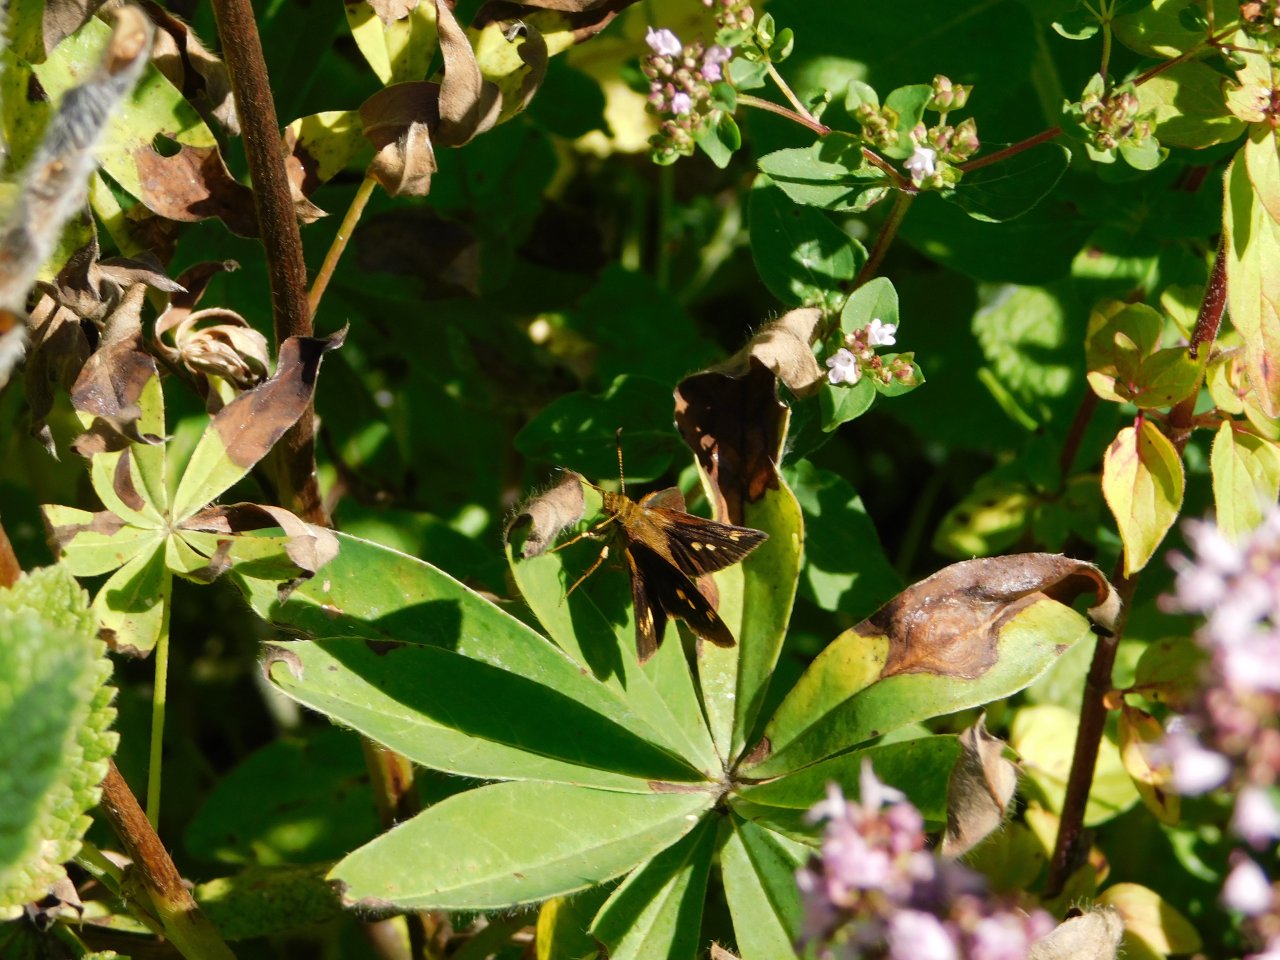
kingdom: Animalia
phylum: Arthropoda
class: Insecta
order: Lepidoptera
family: Hesperiidae
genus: Vernia
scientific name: Vernia verna
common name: Little Glassywing
